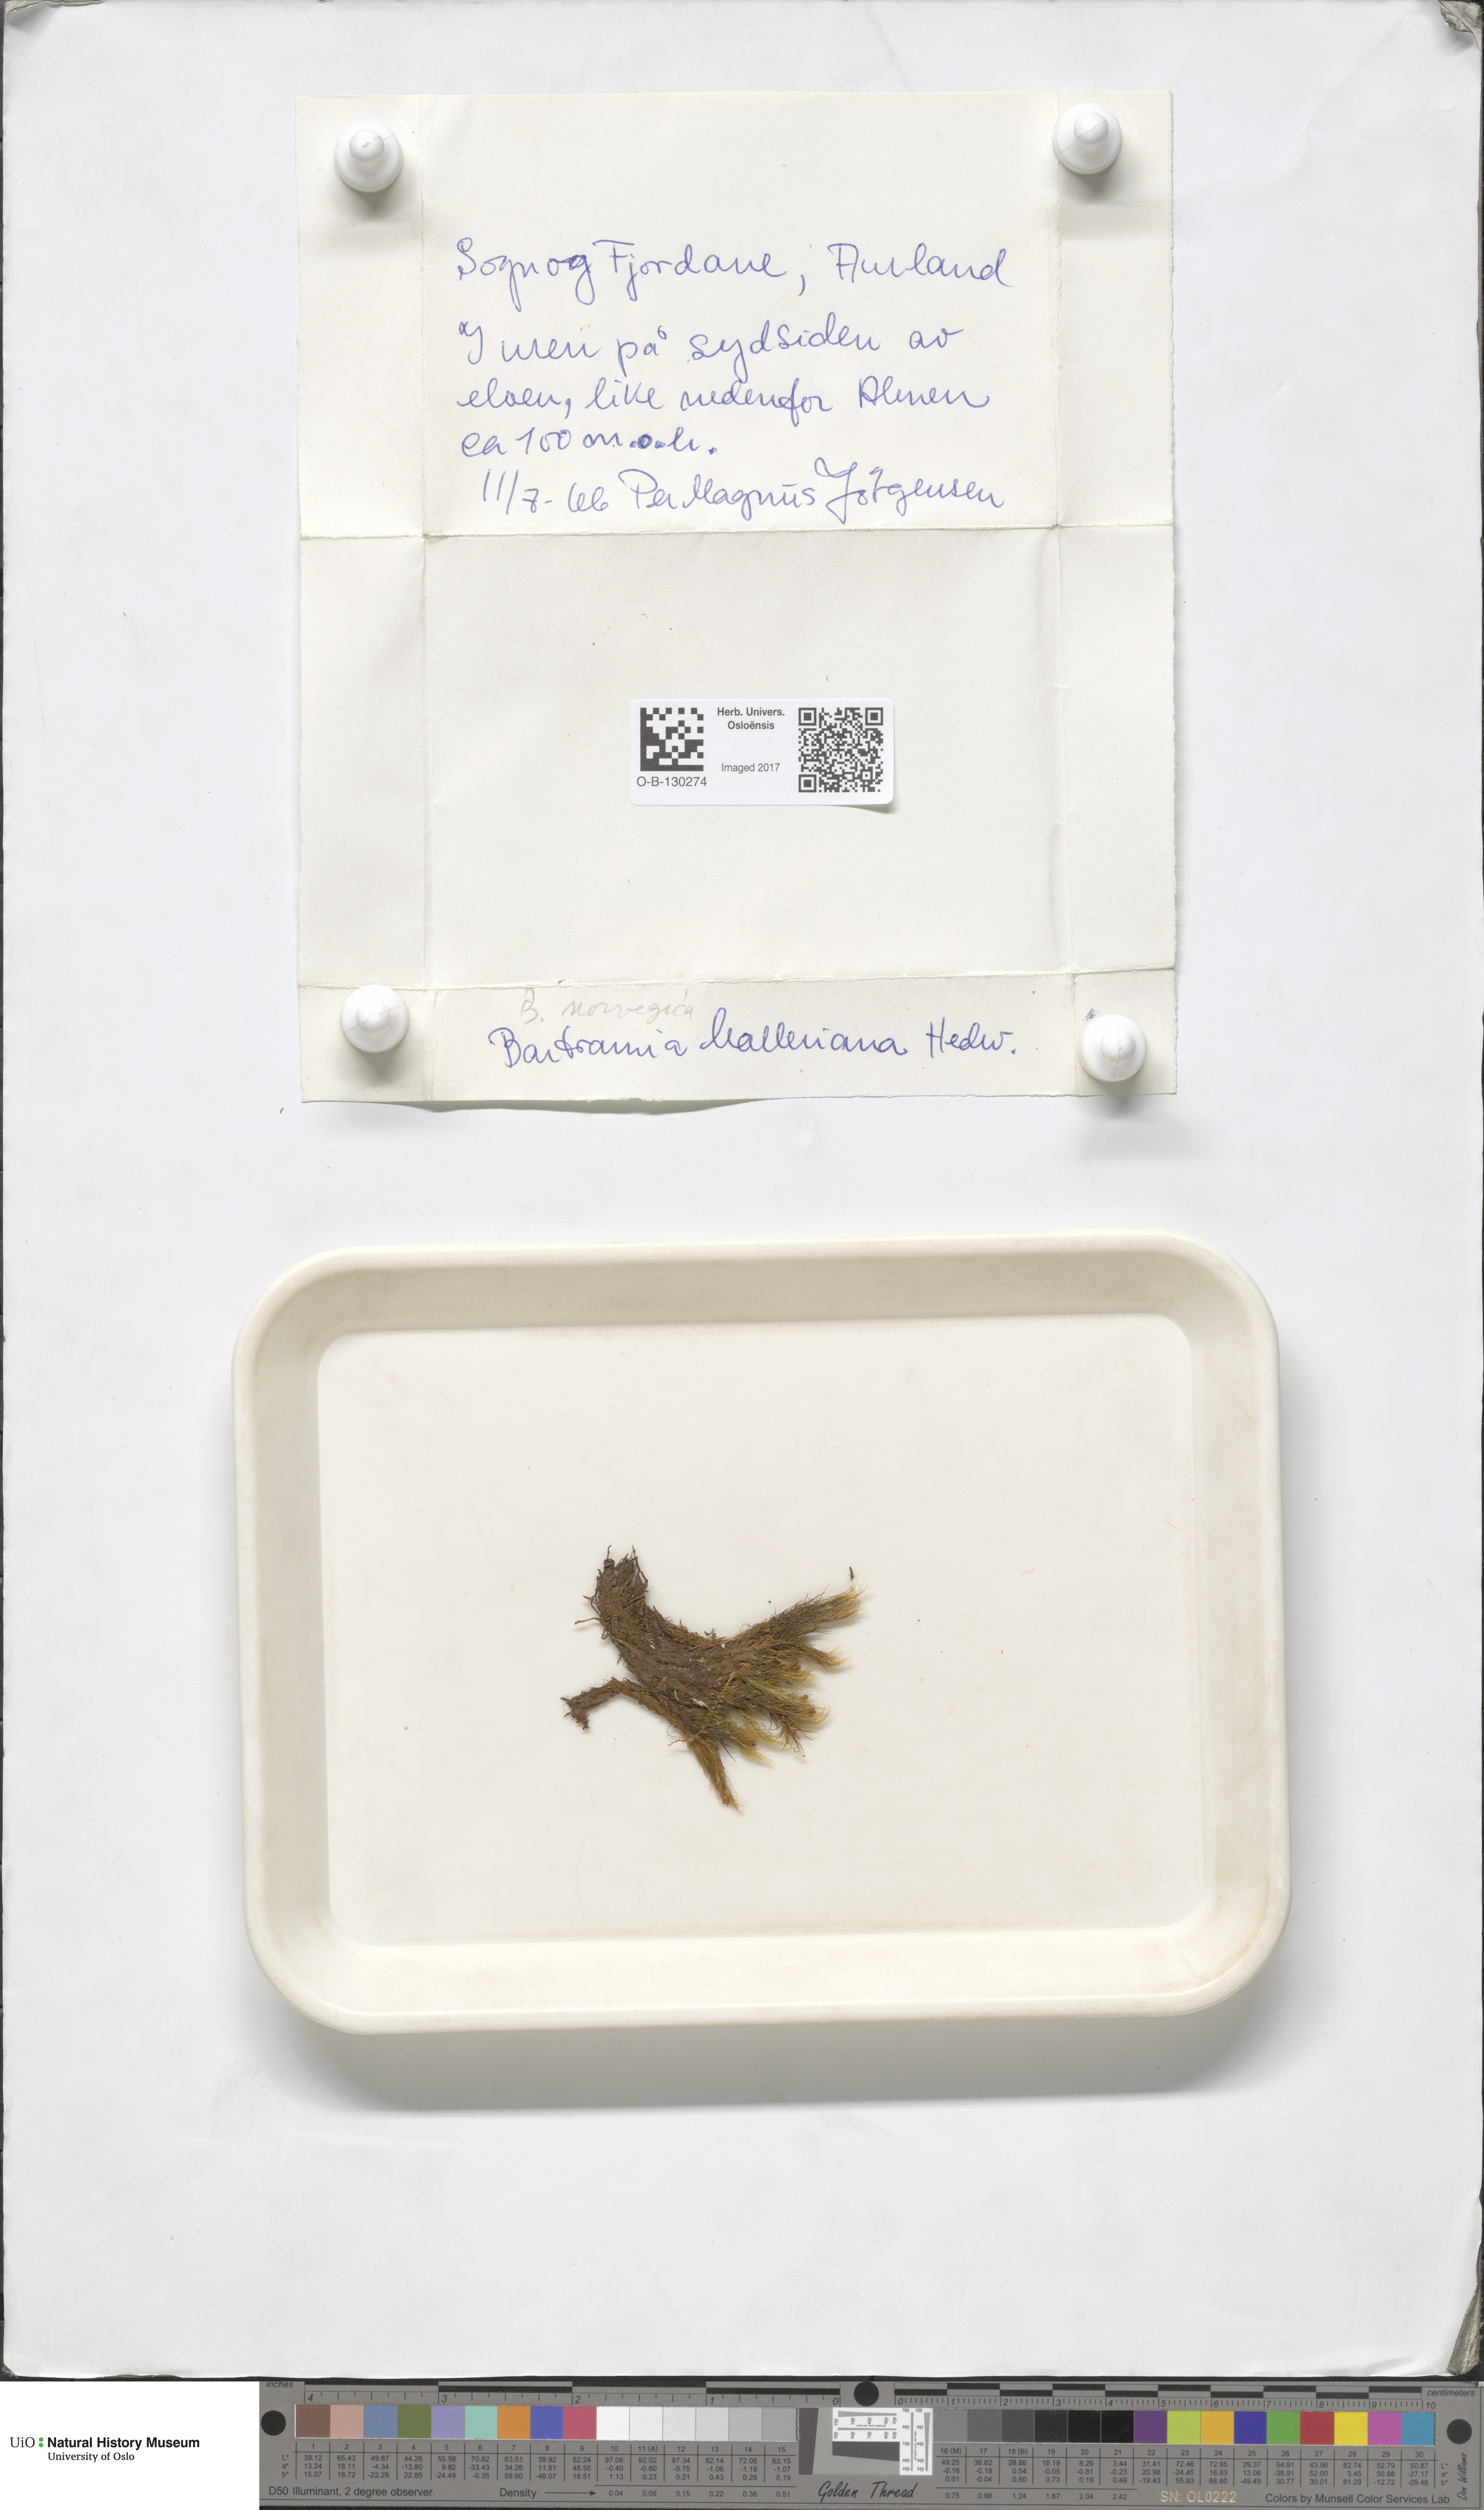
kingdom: Plantae
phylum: Bryophyta
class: Bryopsida
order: Bartramiales
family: Bartramiaceae
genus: Bartramia
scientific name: Bartramia halleriana
